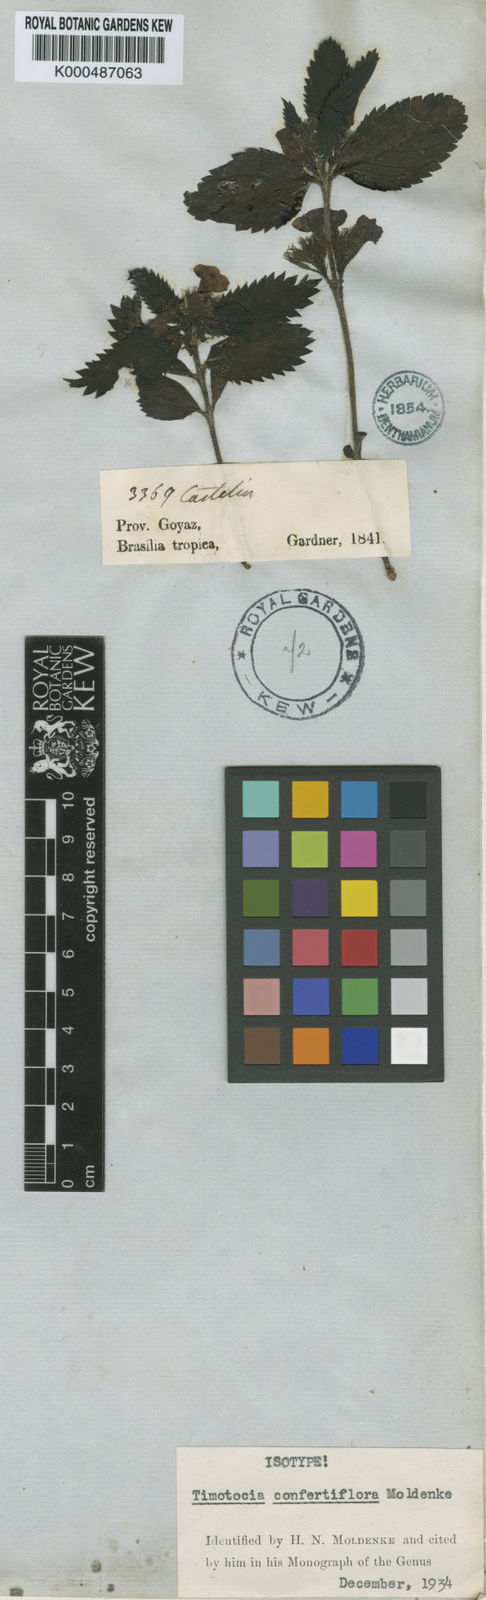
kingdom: Plantae
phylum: Tracheophyta
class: Magnoliopsida
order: Lamiales
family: Verbenaceae
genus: Casselia
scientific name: Casselia confertiflora
